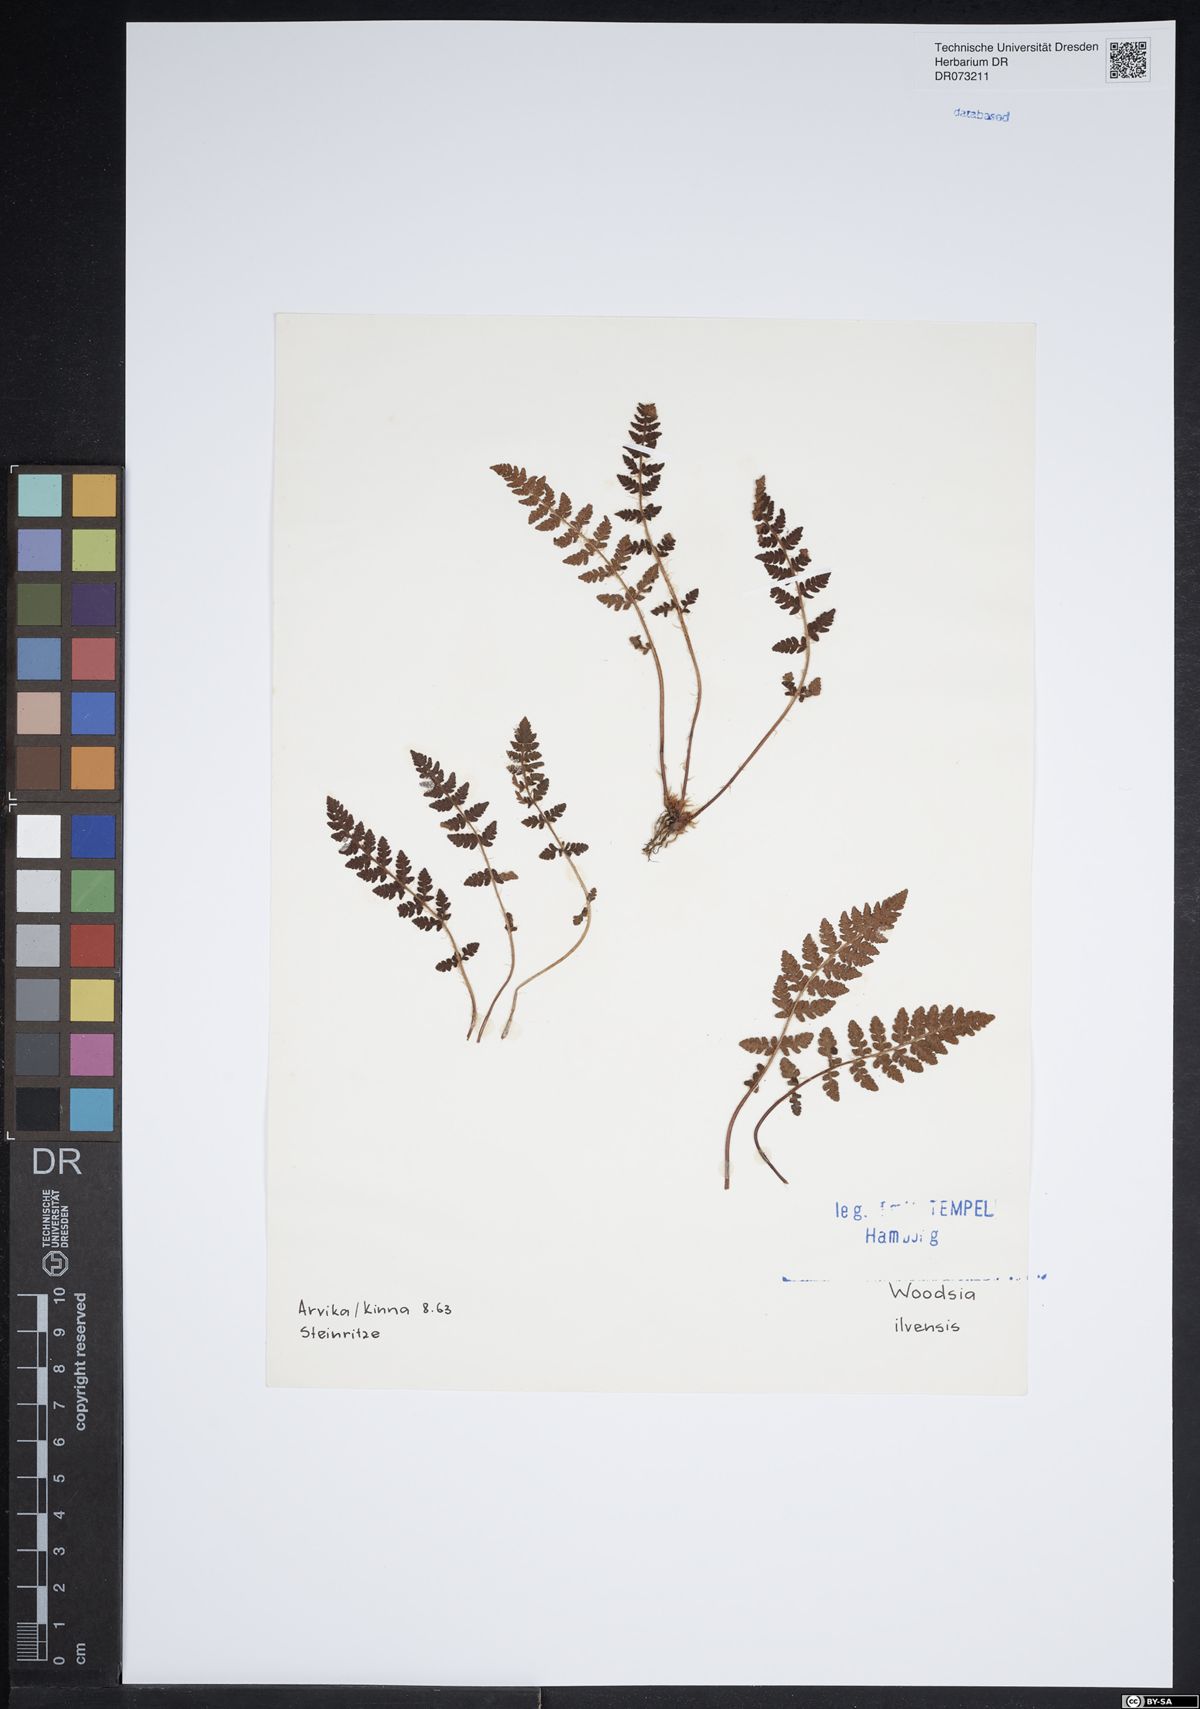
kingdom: Plantae
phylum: Tracheophyta
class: Polypodiopsida
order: Polypodiales
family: Woodsiaceae
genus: Woodsia
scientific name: Woodsia ilvensis
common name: Fragrant woodsia
